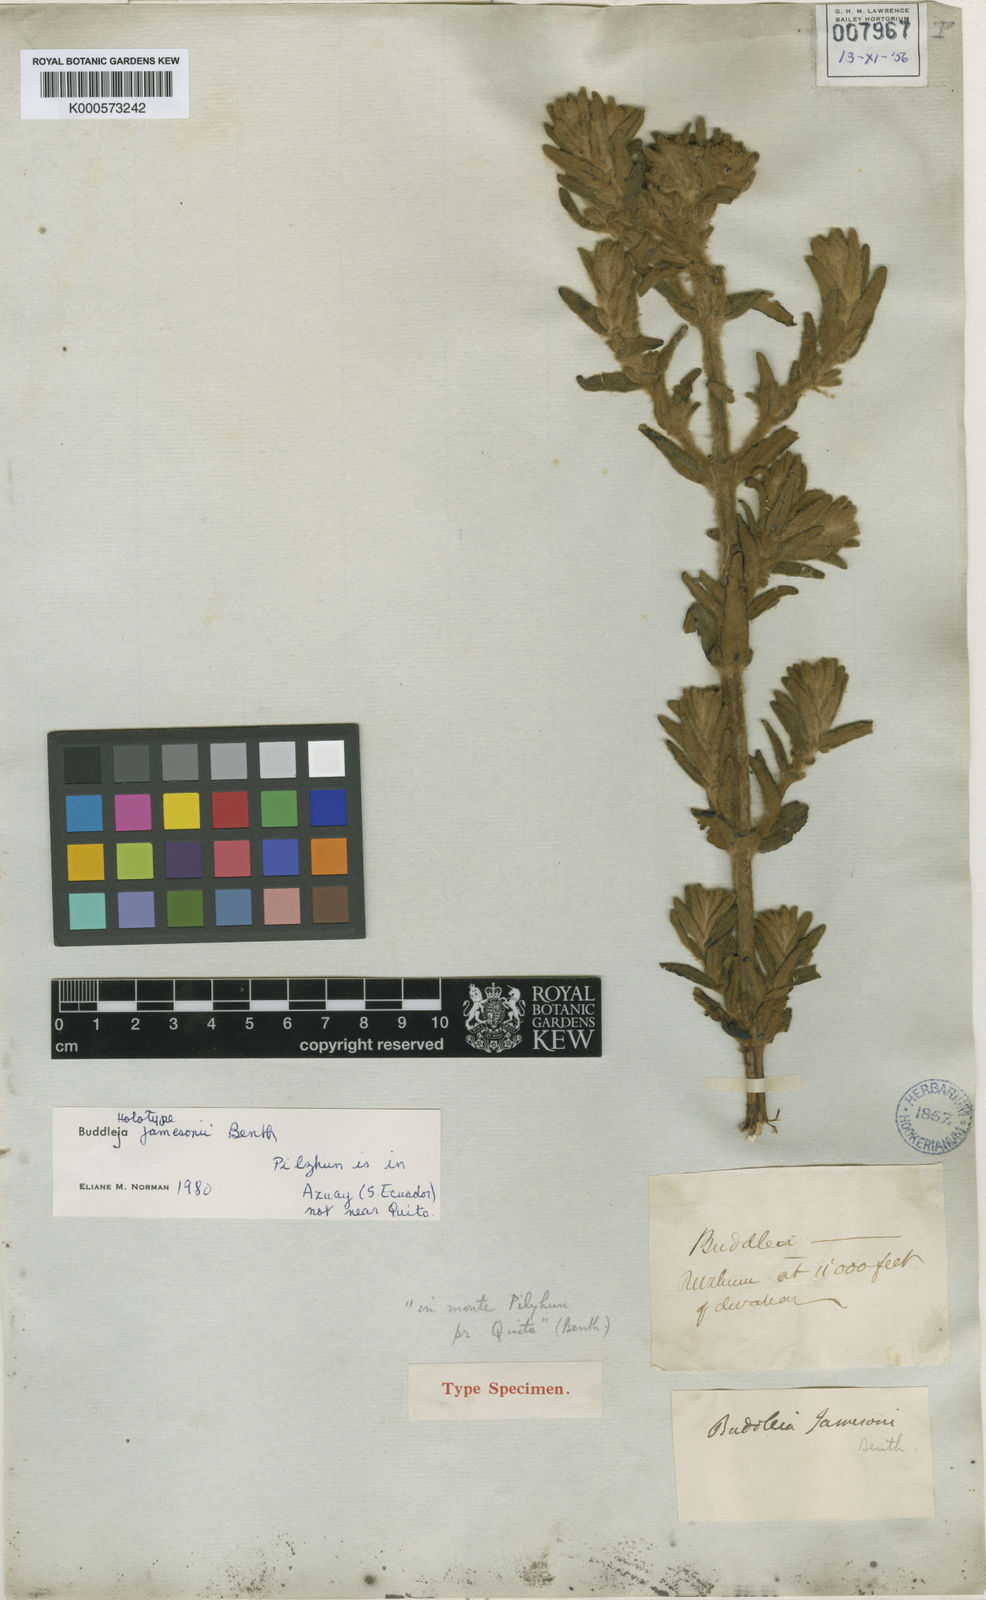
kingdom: Plantae
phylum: Tracheophyta
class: Magnoliopsida
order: Lamiales
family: Scrophulariaceae
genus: Buddleja
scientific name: Buddleja jamesonii
